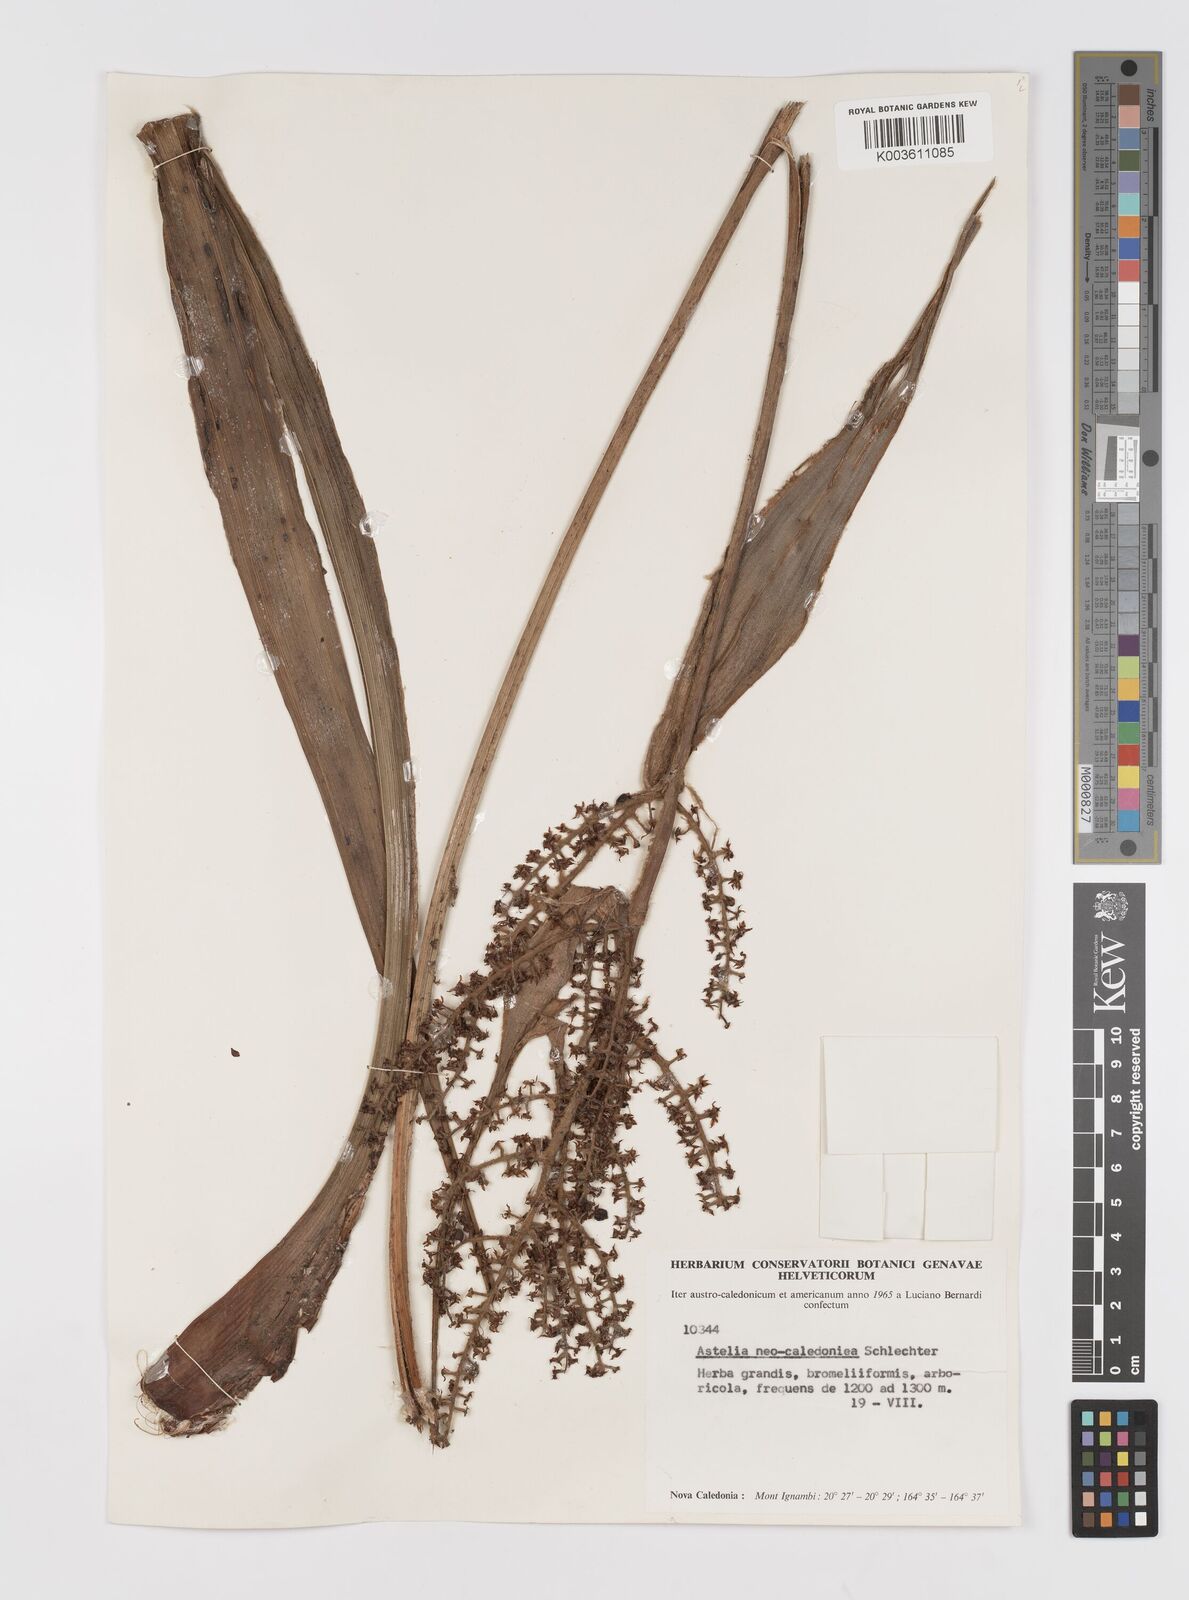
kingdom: Plantae
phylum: Tracheophyta
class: Liliopsida
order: Asparagales
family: Asteliaceae
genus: Astelia
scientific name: Astelia neocaledonica
